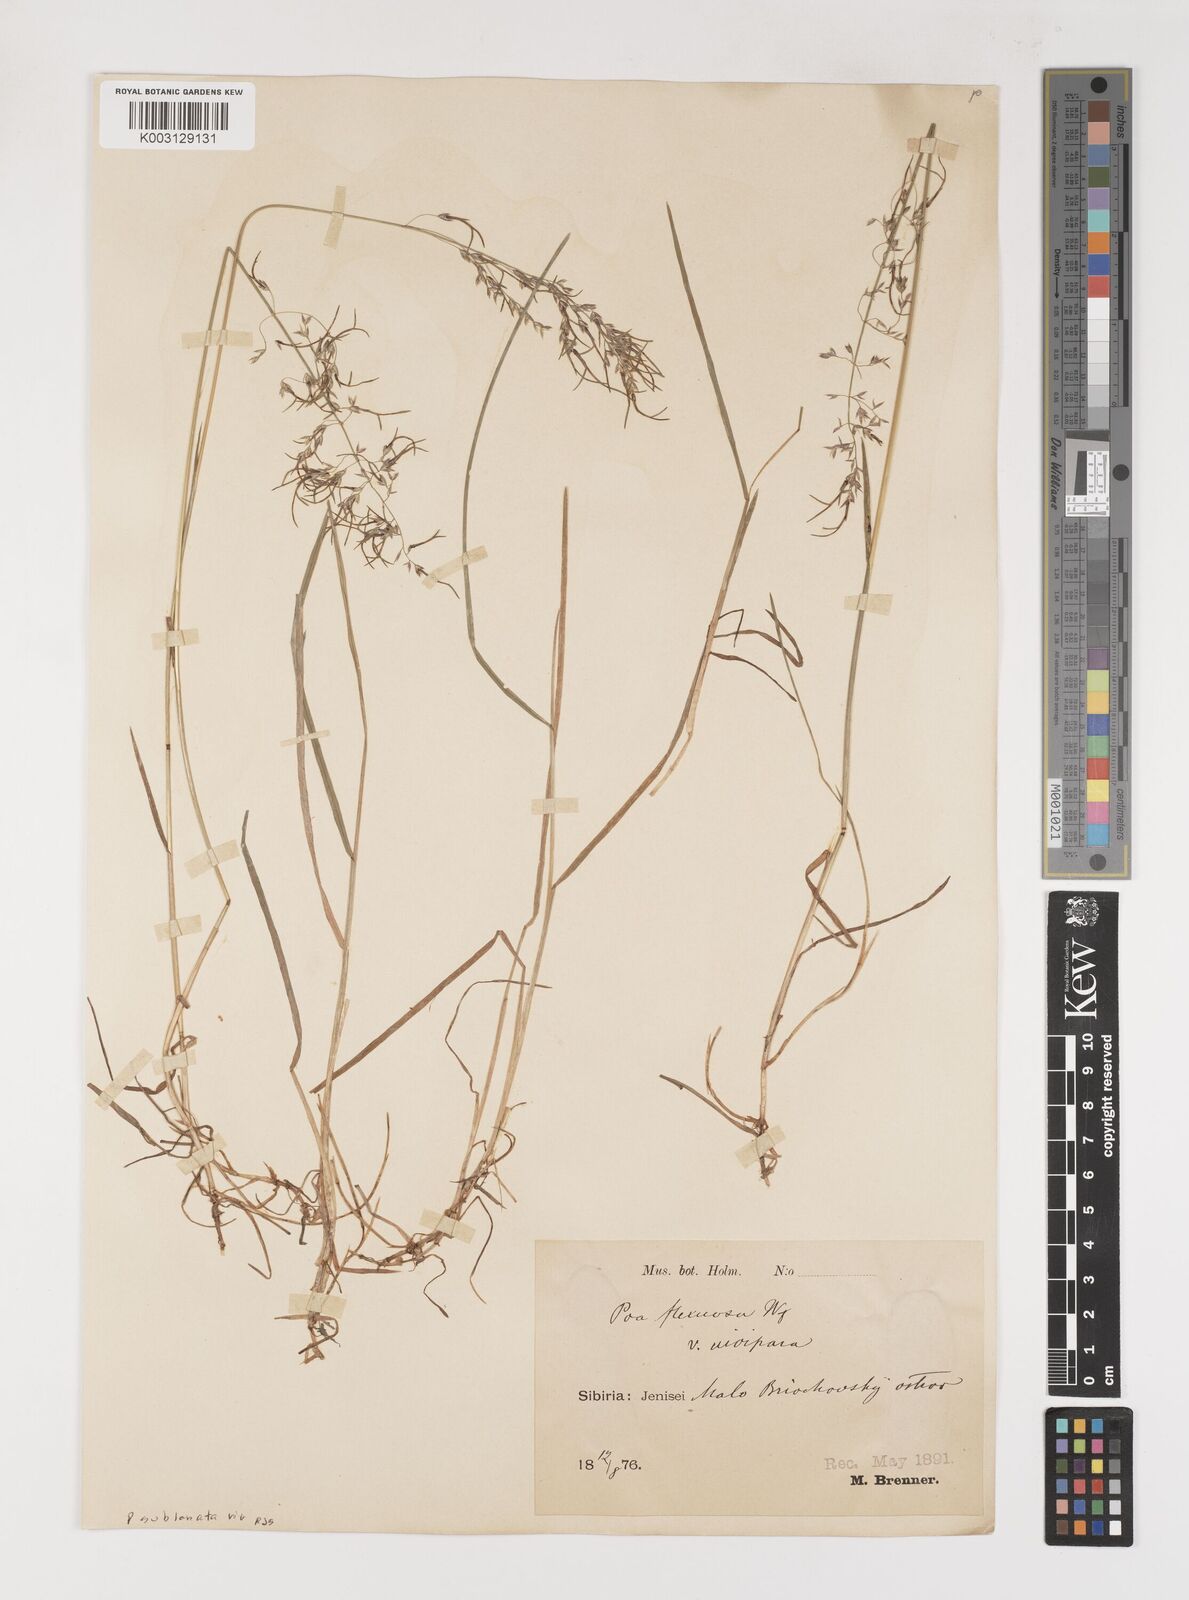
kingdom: Plantae
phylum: Tracheophyta
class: Liliopsida
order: Poales
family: Poaceae
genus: Poa
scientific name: Poa arctica
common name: Arctic bluegrass
